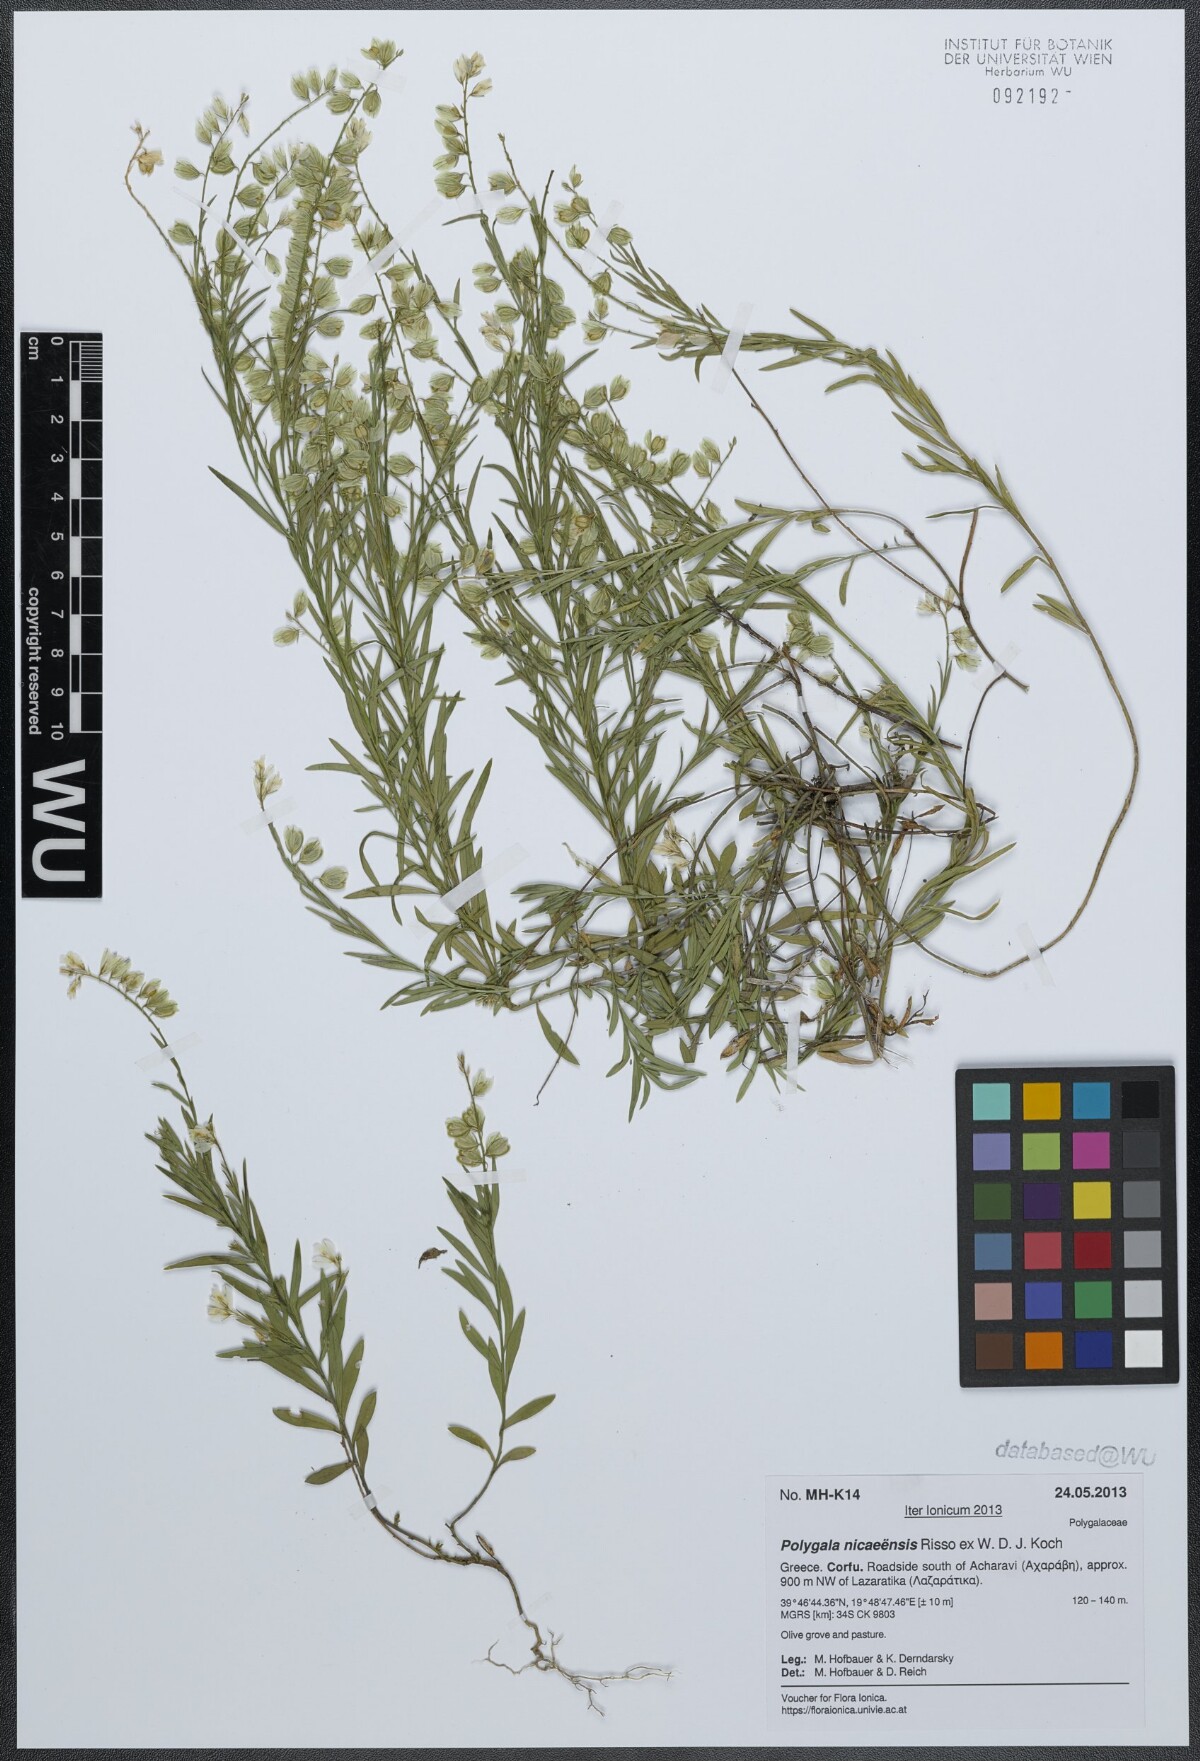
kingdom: Plantae
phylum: Tracheophyta
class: Magnoliopsida
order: Fabales
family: Polygalaceae
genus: Polygala
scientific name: Polygala nicaeensis
